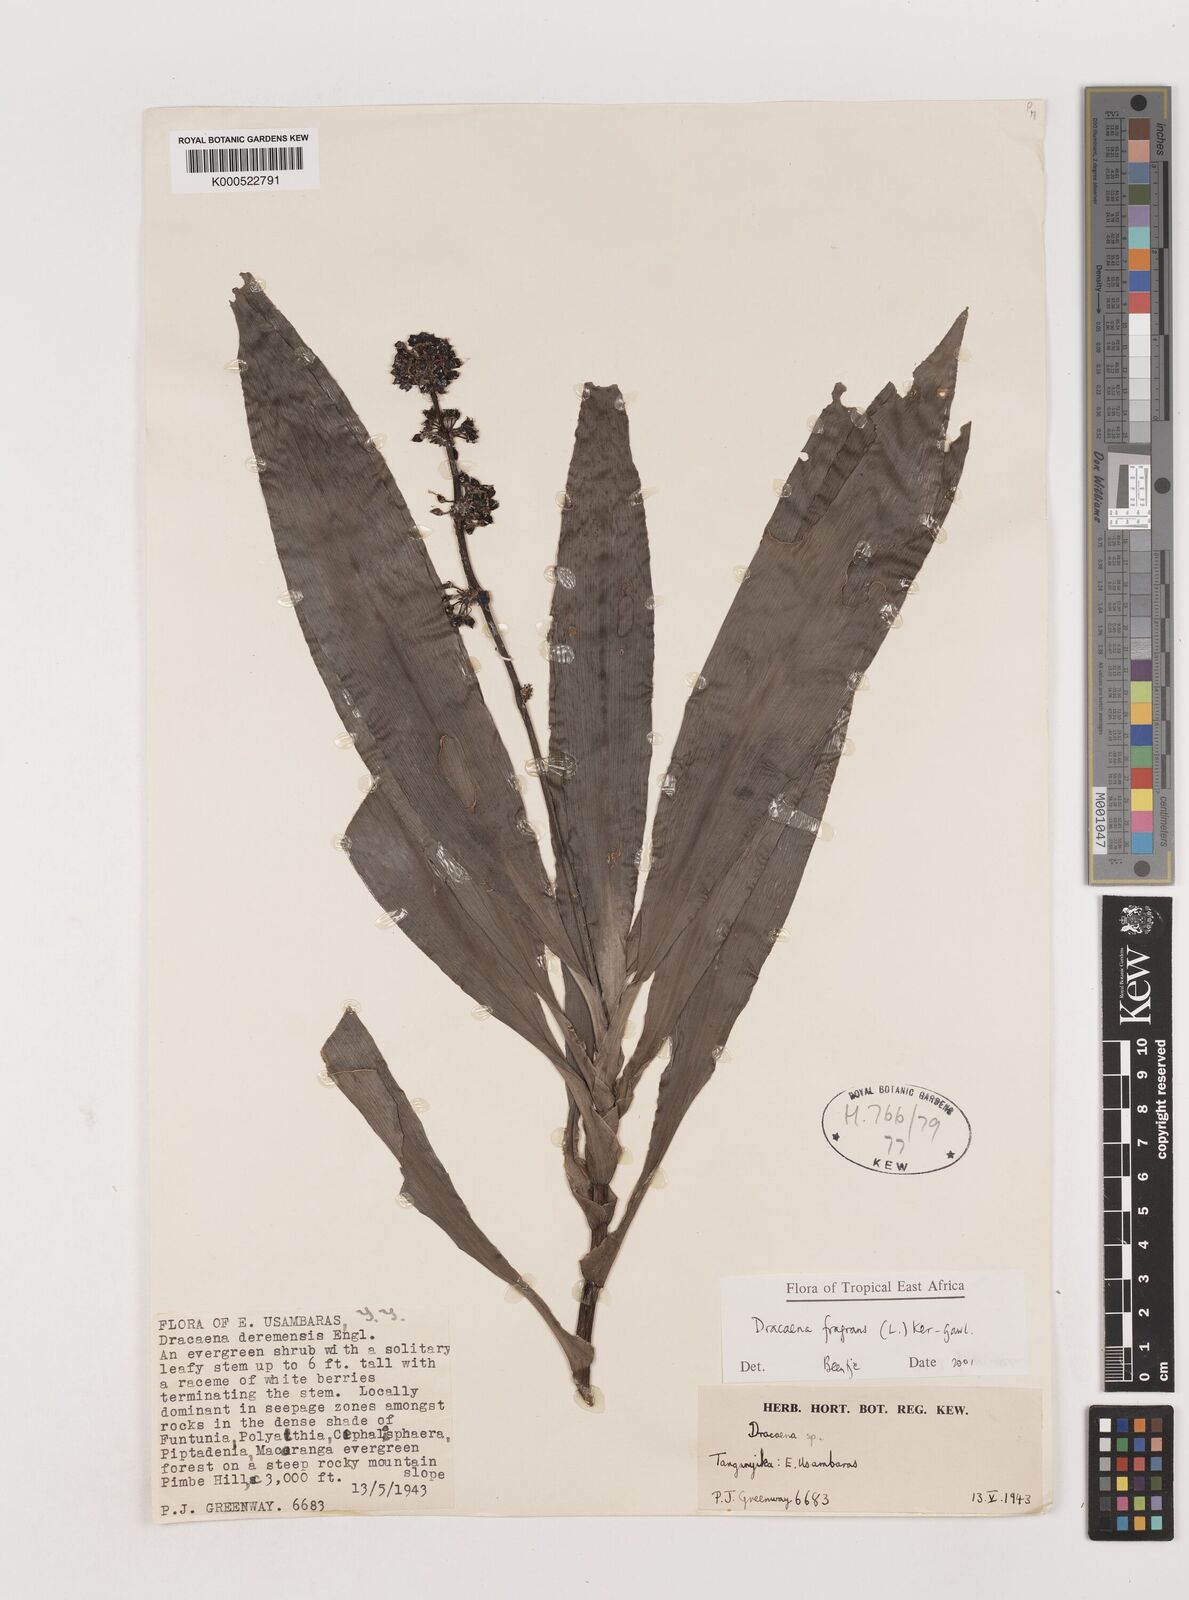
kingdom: Plantae
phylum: Tracheophyta
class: Liliopsida
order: Asparagales
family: Asparagaceae
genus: Dracaena
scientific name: Dracaena fragrans
